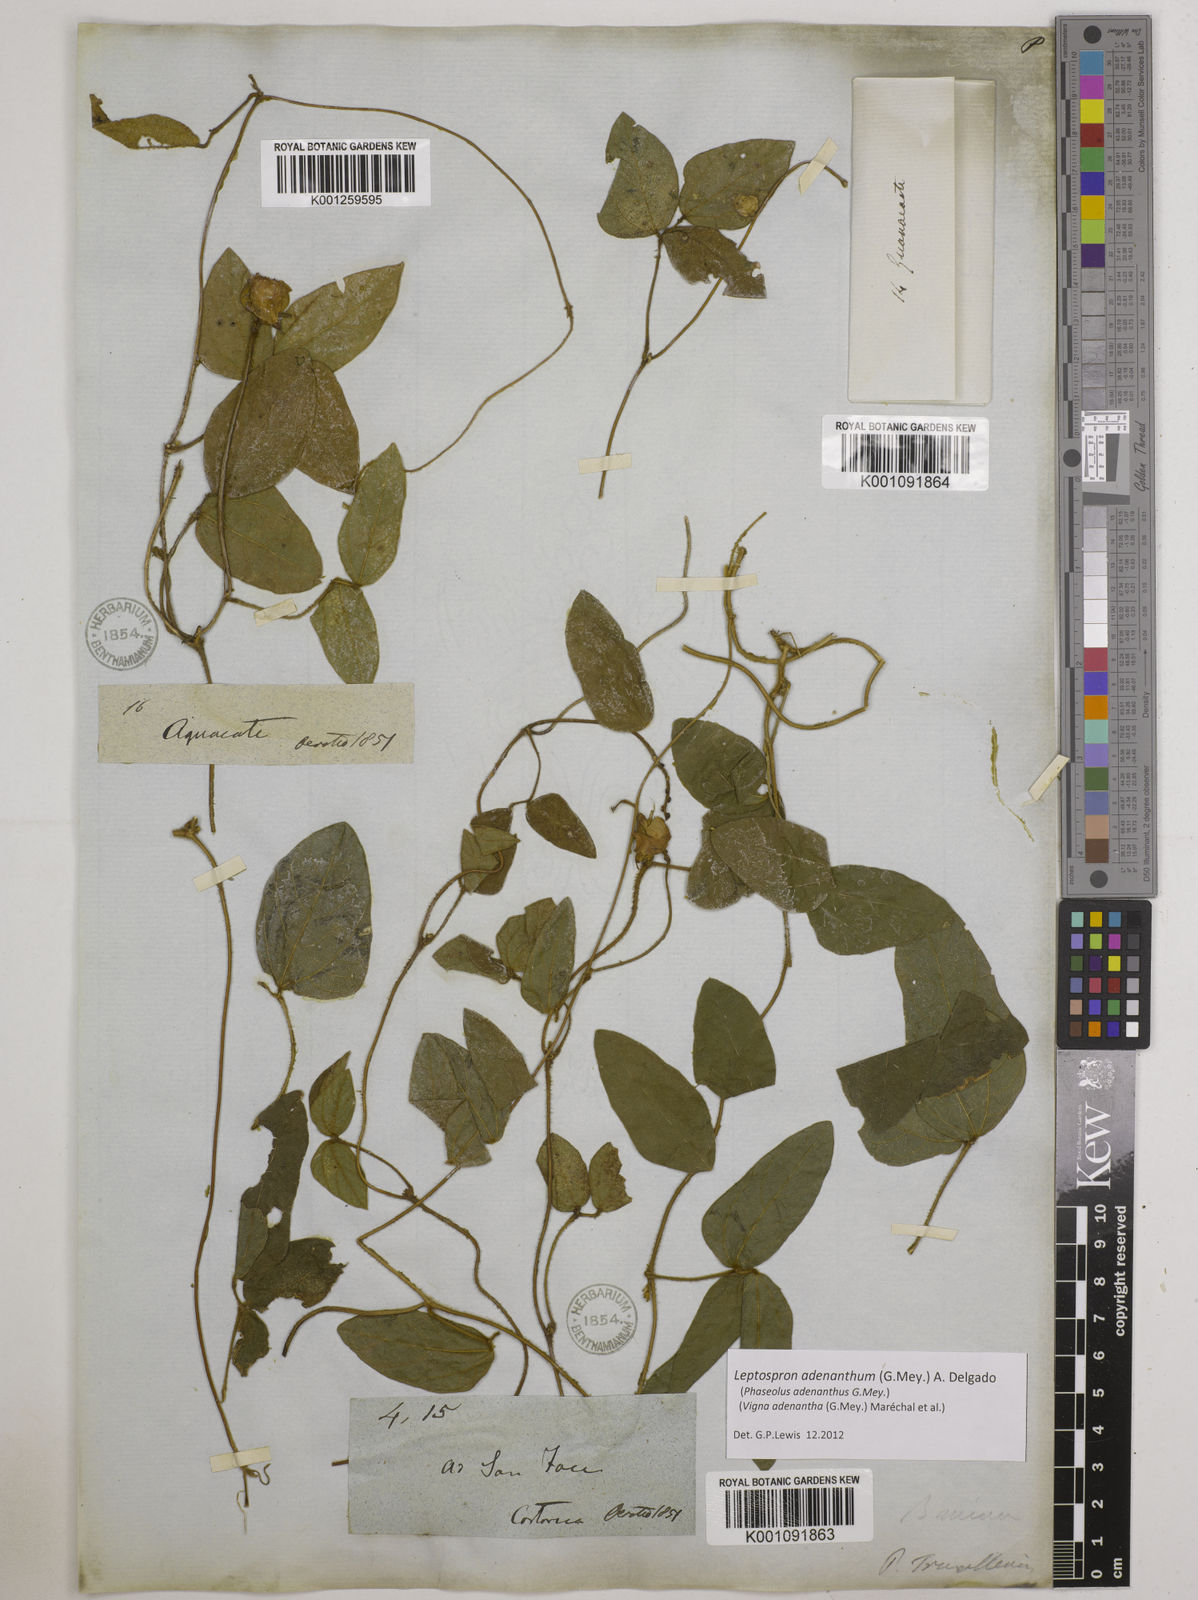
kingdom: Plantae
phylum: Tracheophyta
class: Magnoliopsida
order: Fabales
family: Fabaceae
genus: Leptospron
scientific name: Leptospron adenanthum
